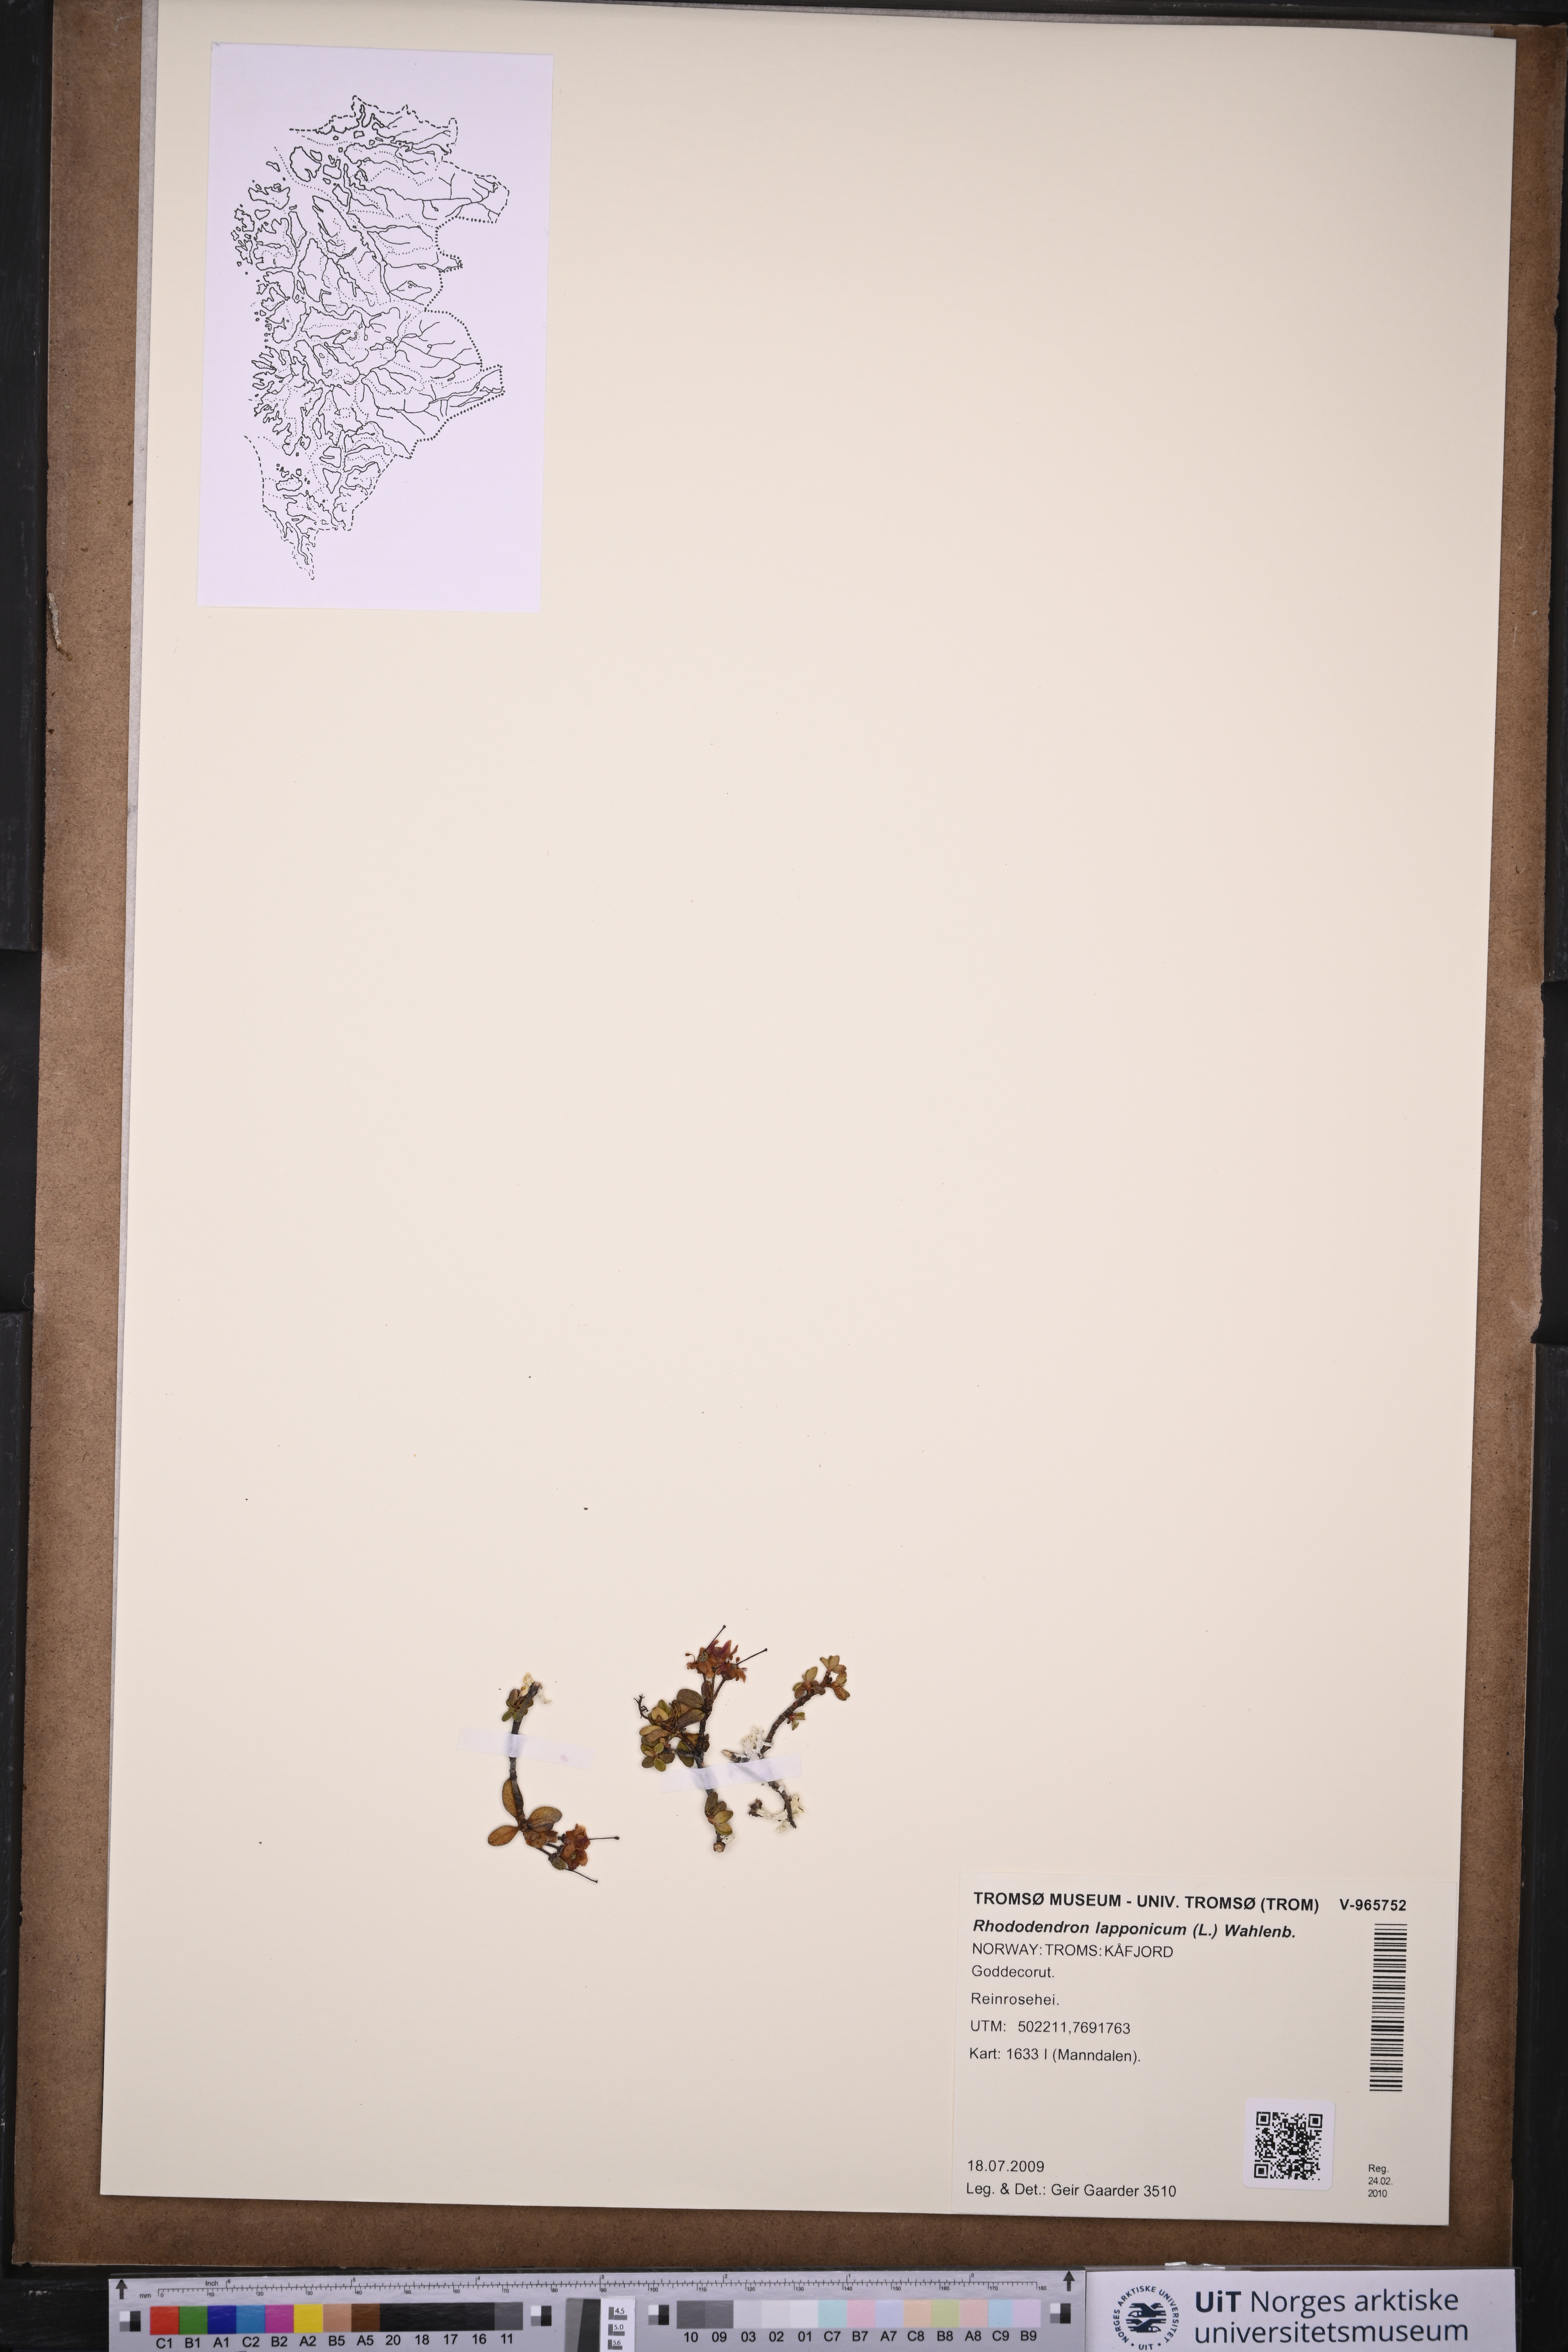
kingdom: Plantae
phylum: Tracheophyta
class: Magnoliopsida
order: Ericales
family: Ericaceae
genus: Rhododendron
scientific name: Rhododendron lapponicum
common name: Lapland rhododendron
